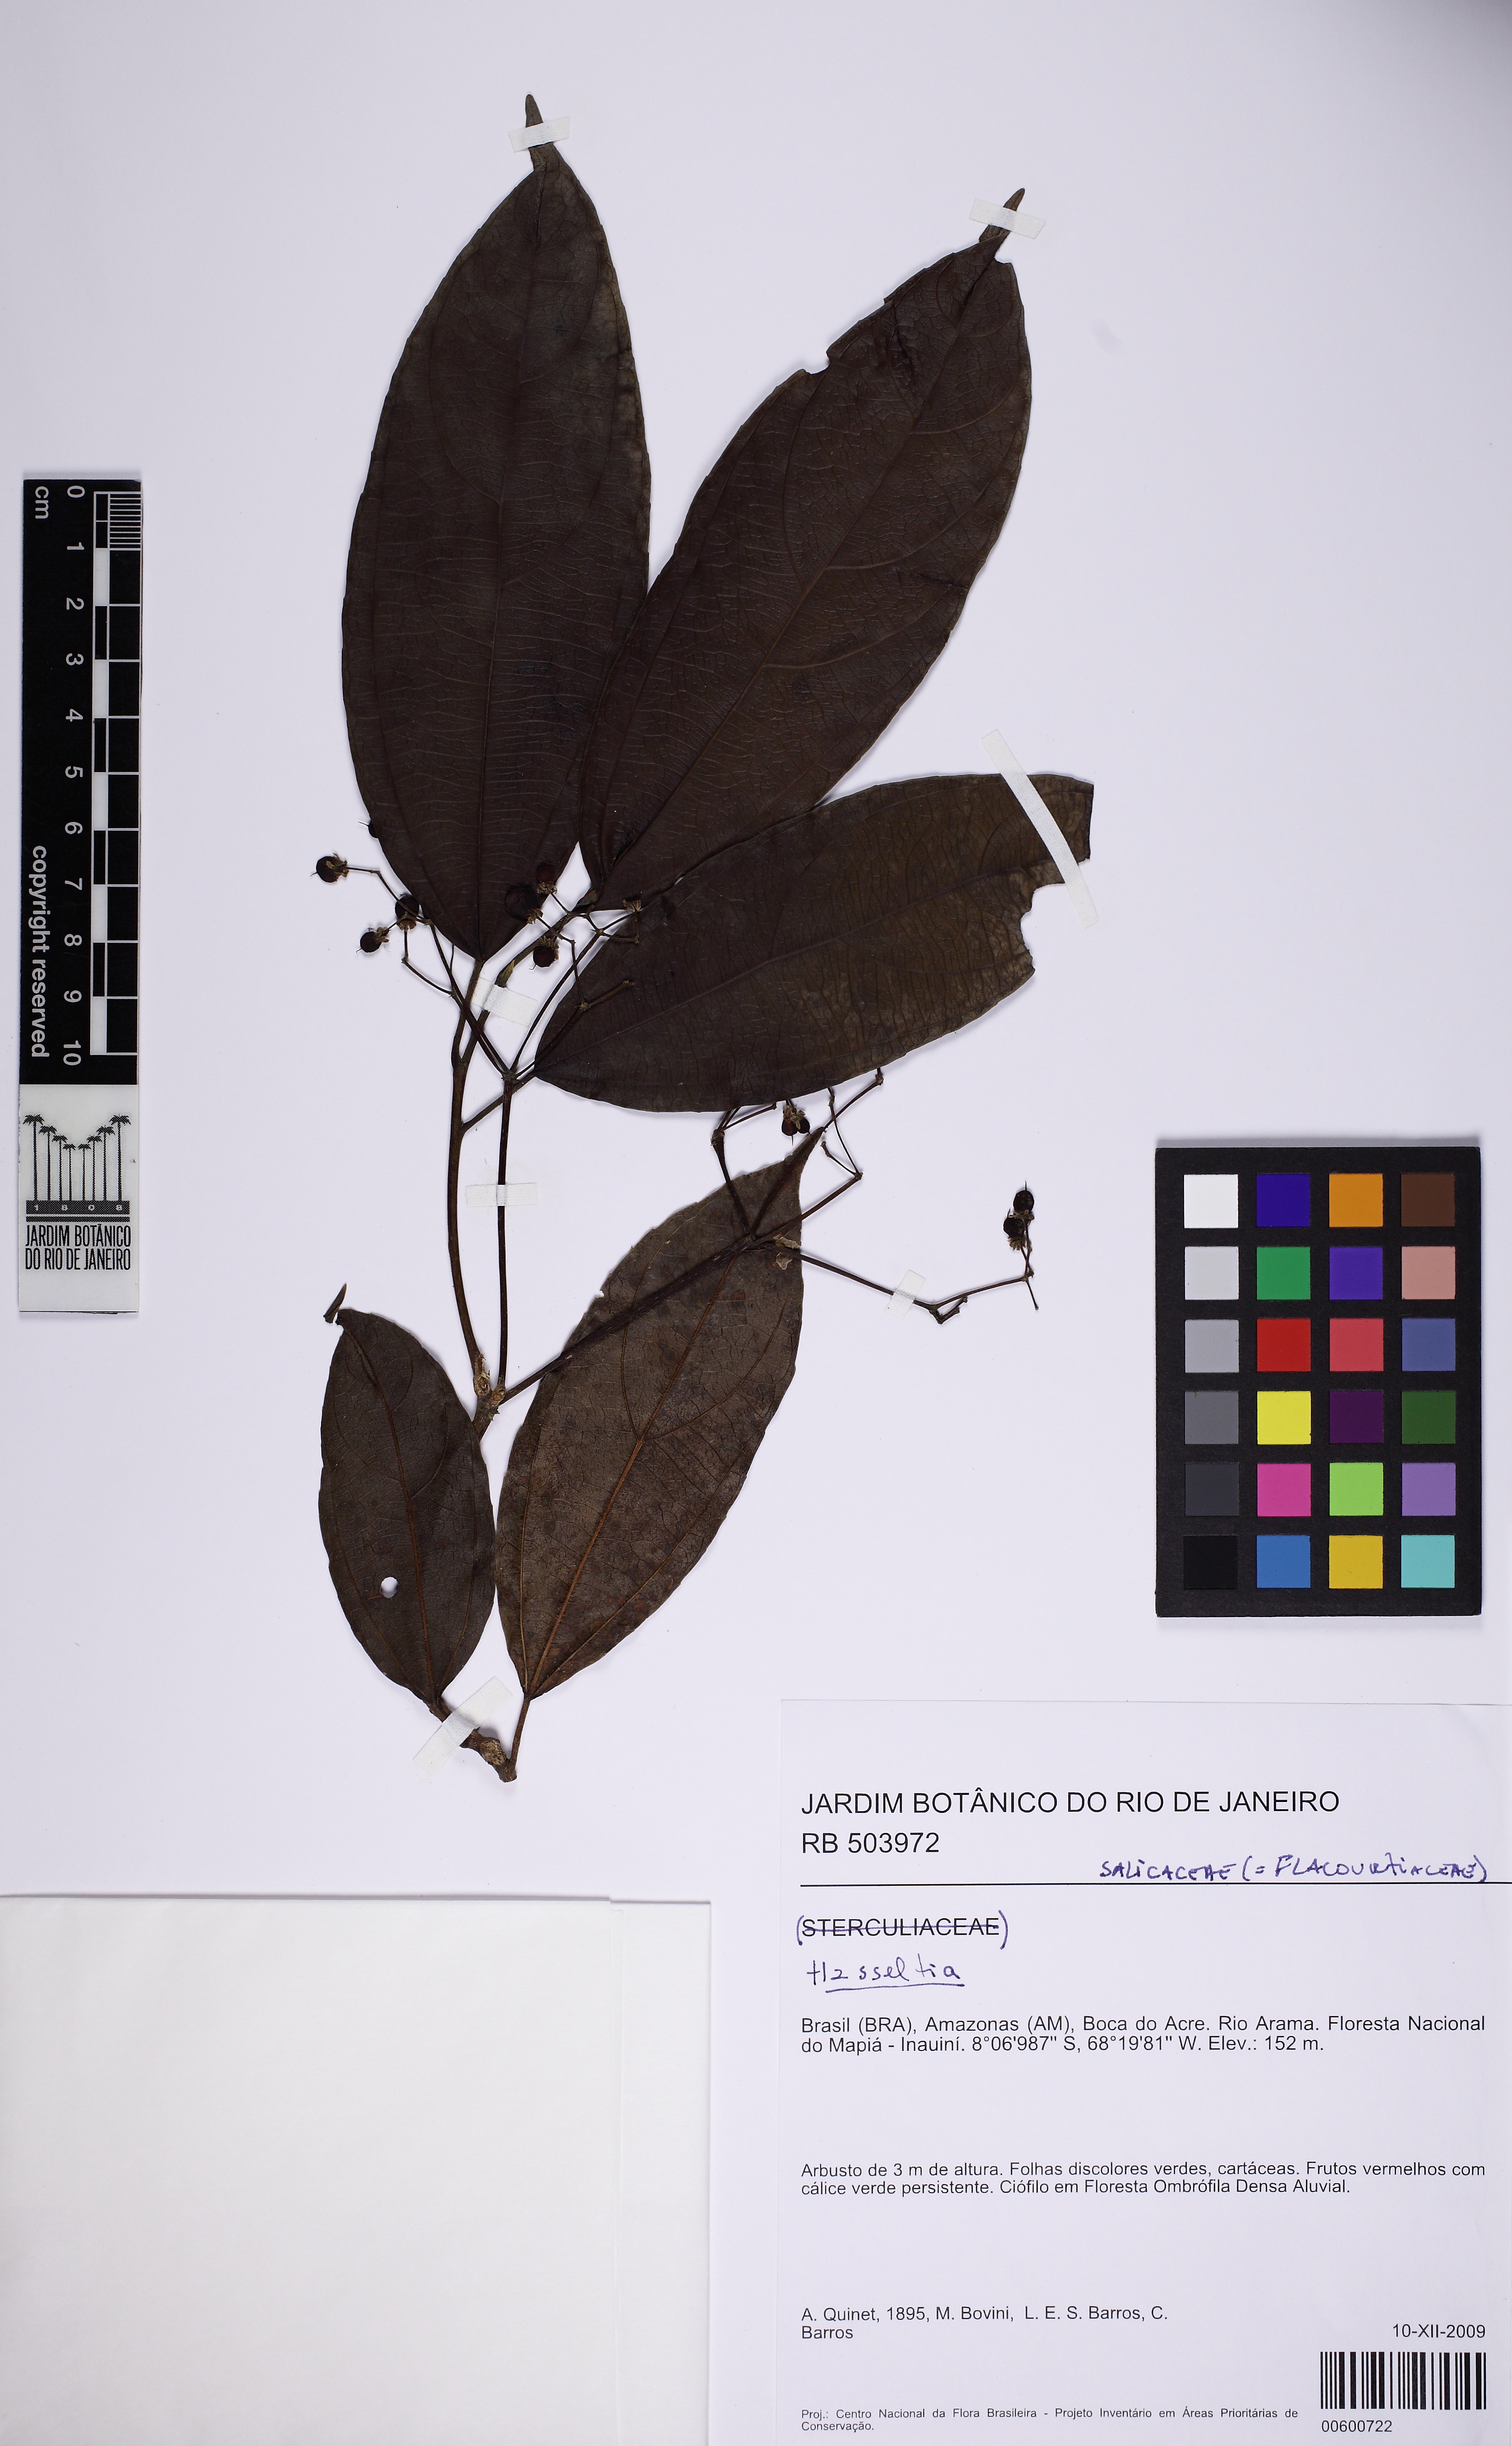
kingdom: Plantae
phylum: Tracheophyta
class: Magnoliopsida
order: Malpighiales
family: Salicaceae
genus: Hasseltia
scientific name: Hasseltia floribunda
